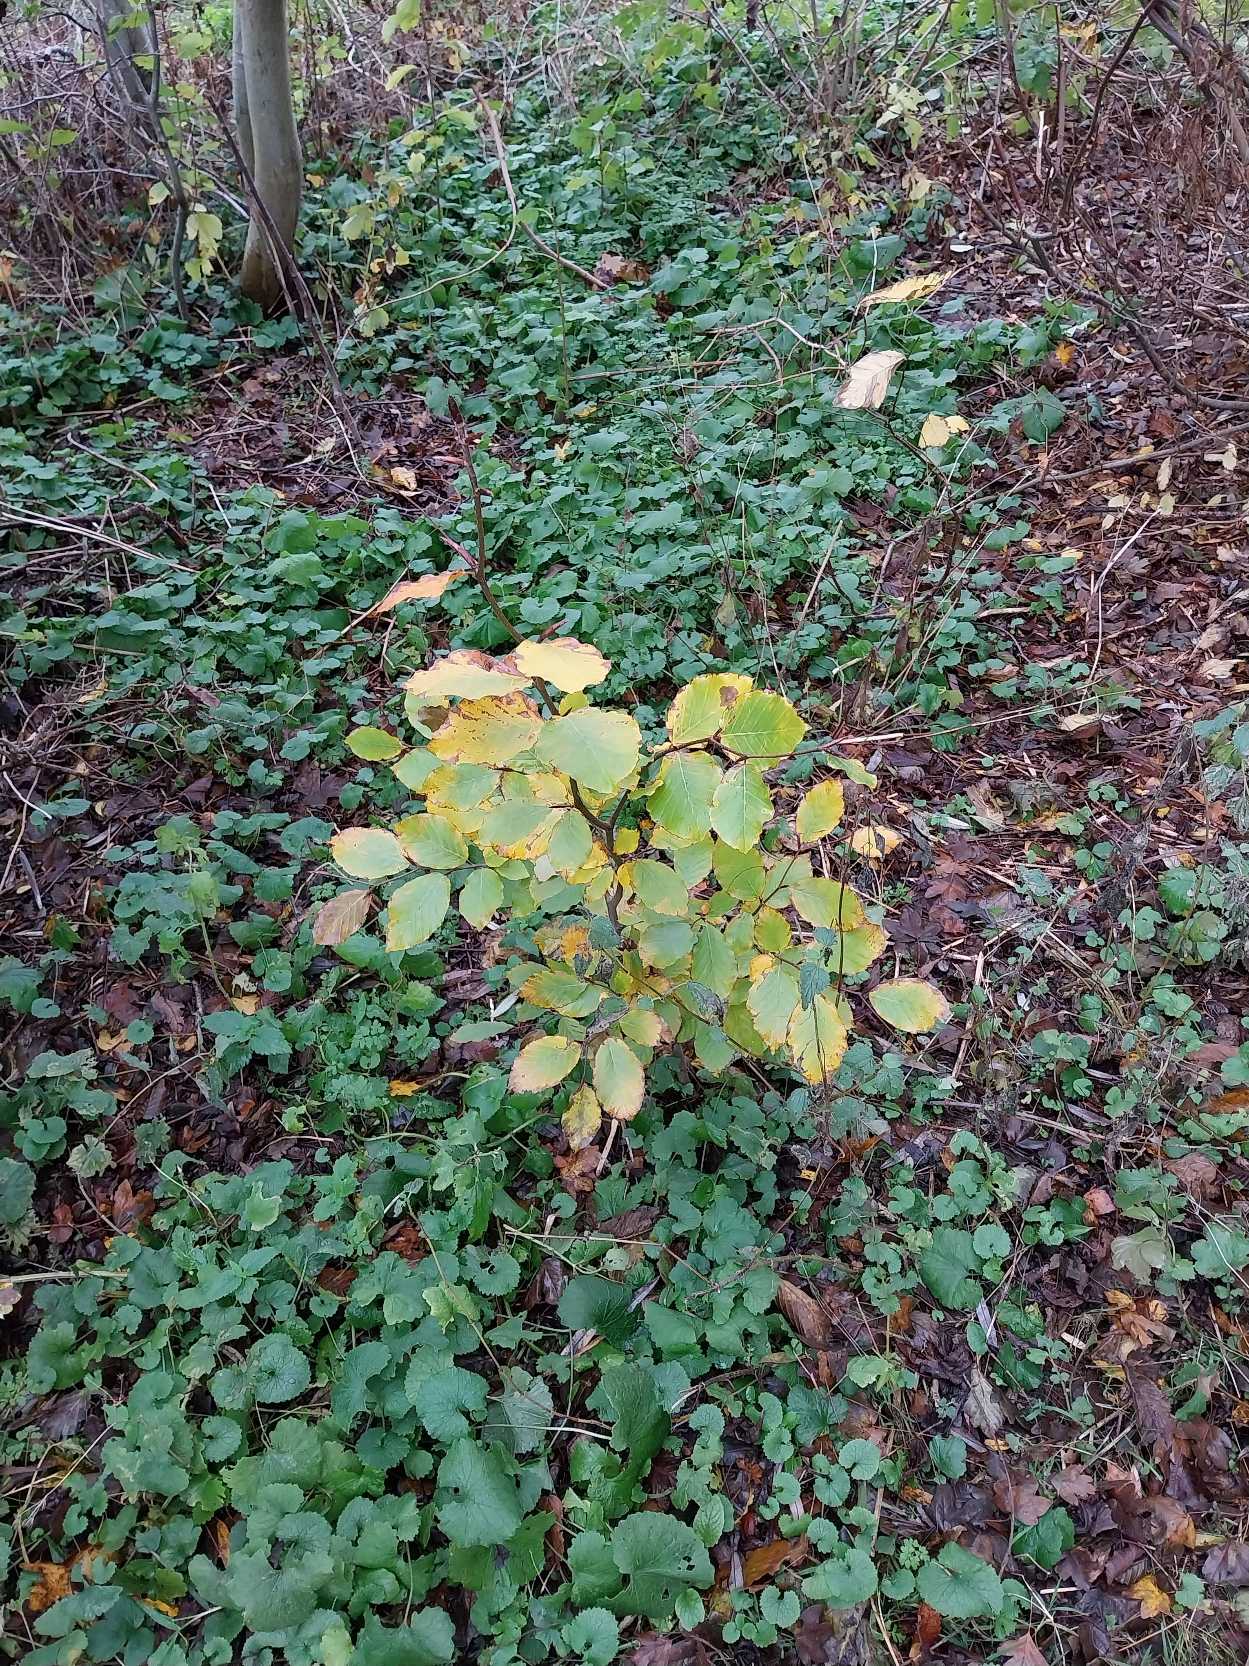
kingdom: Plantae
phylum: Tracheophyta
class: Magnoliopsida
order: Fagales
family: Fagaceae
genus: Fagus
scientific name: Fagus sylvatica
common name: Bøg
